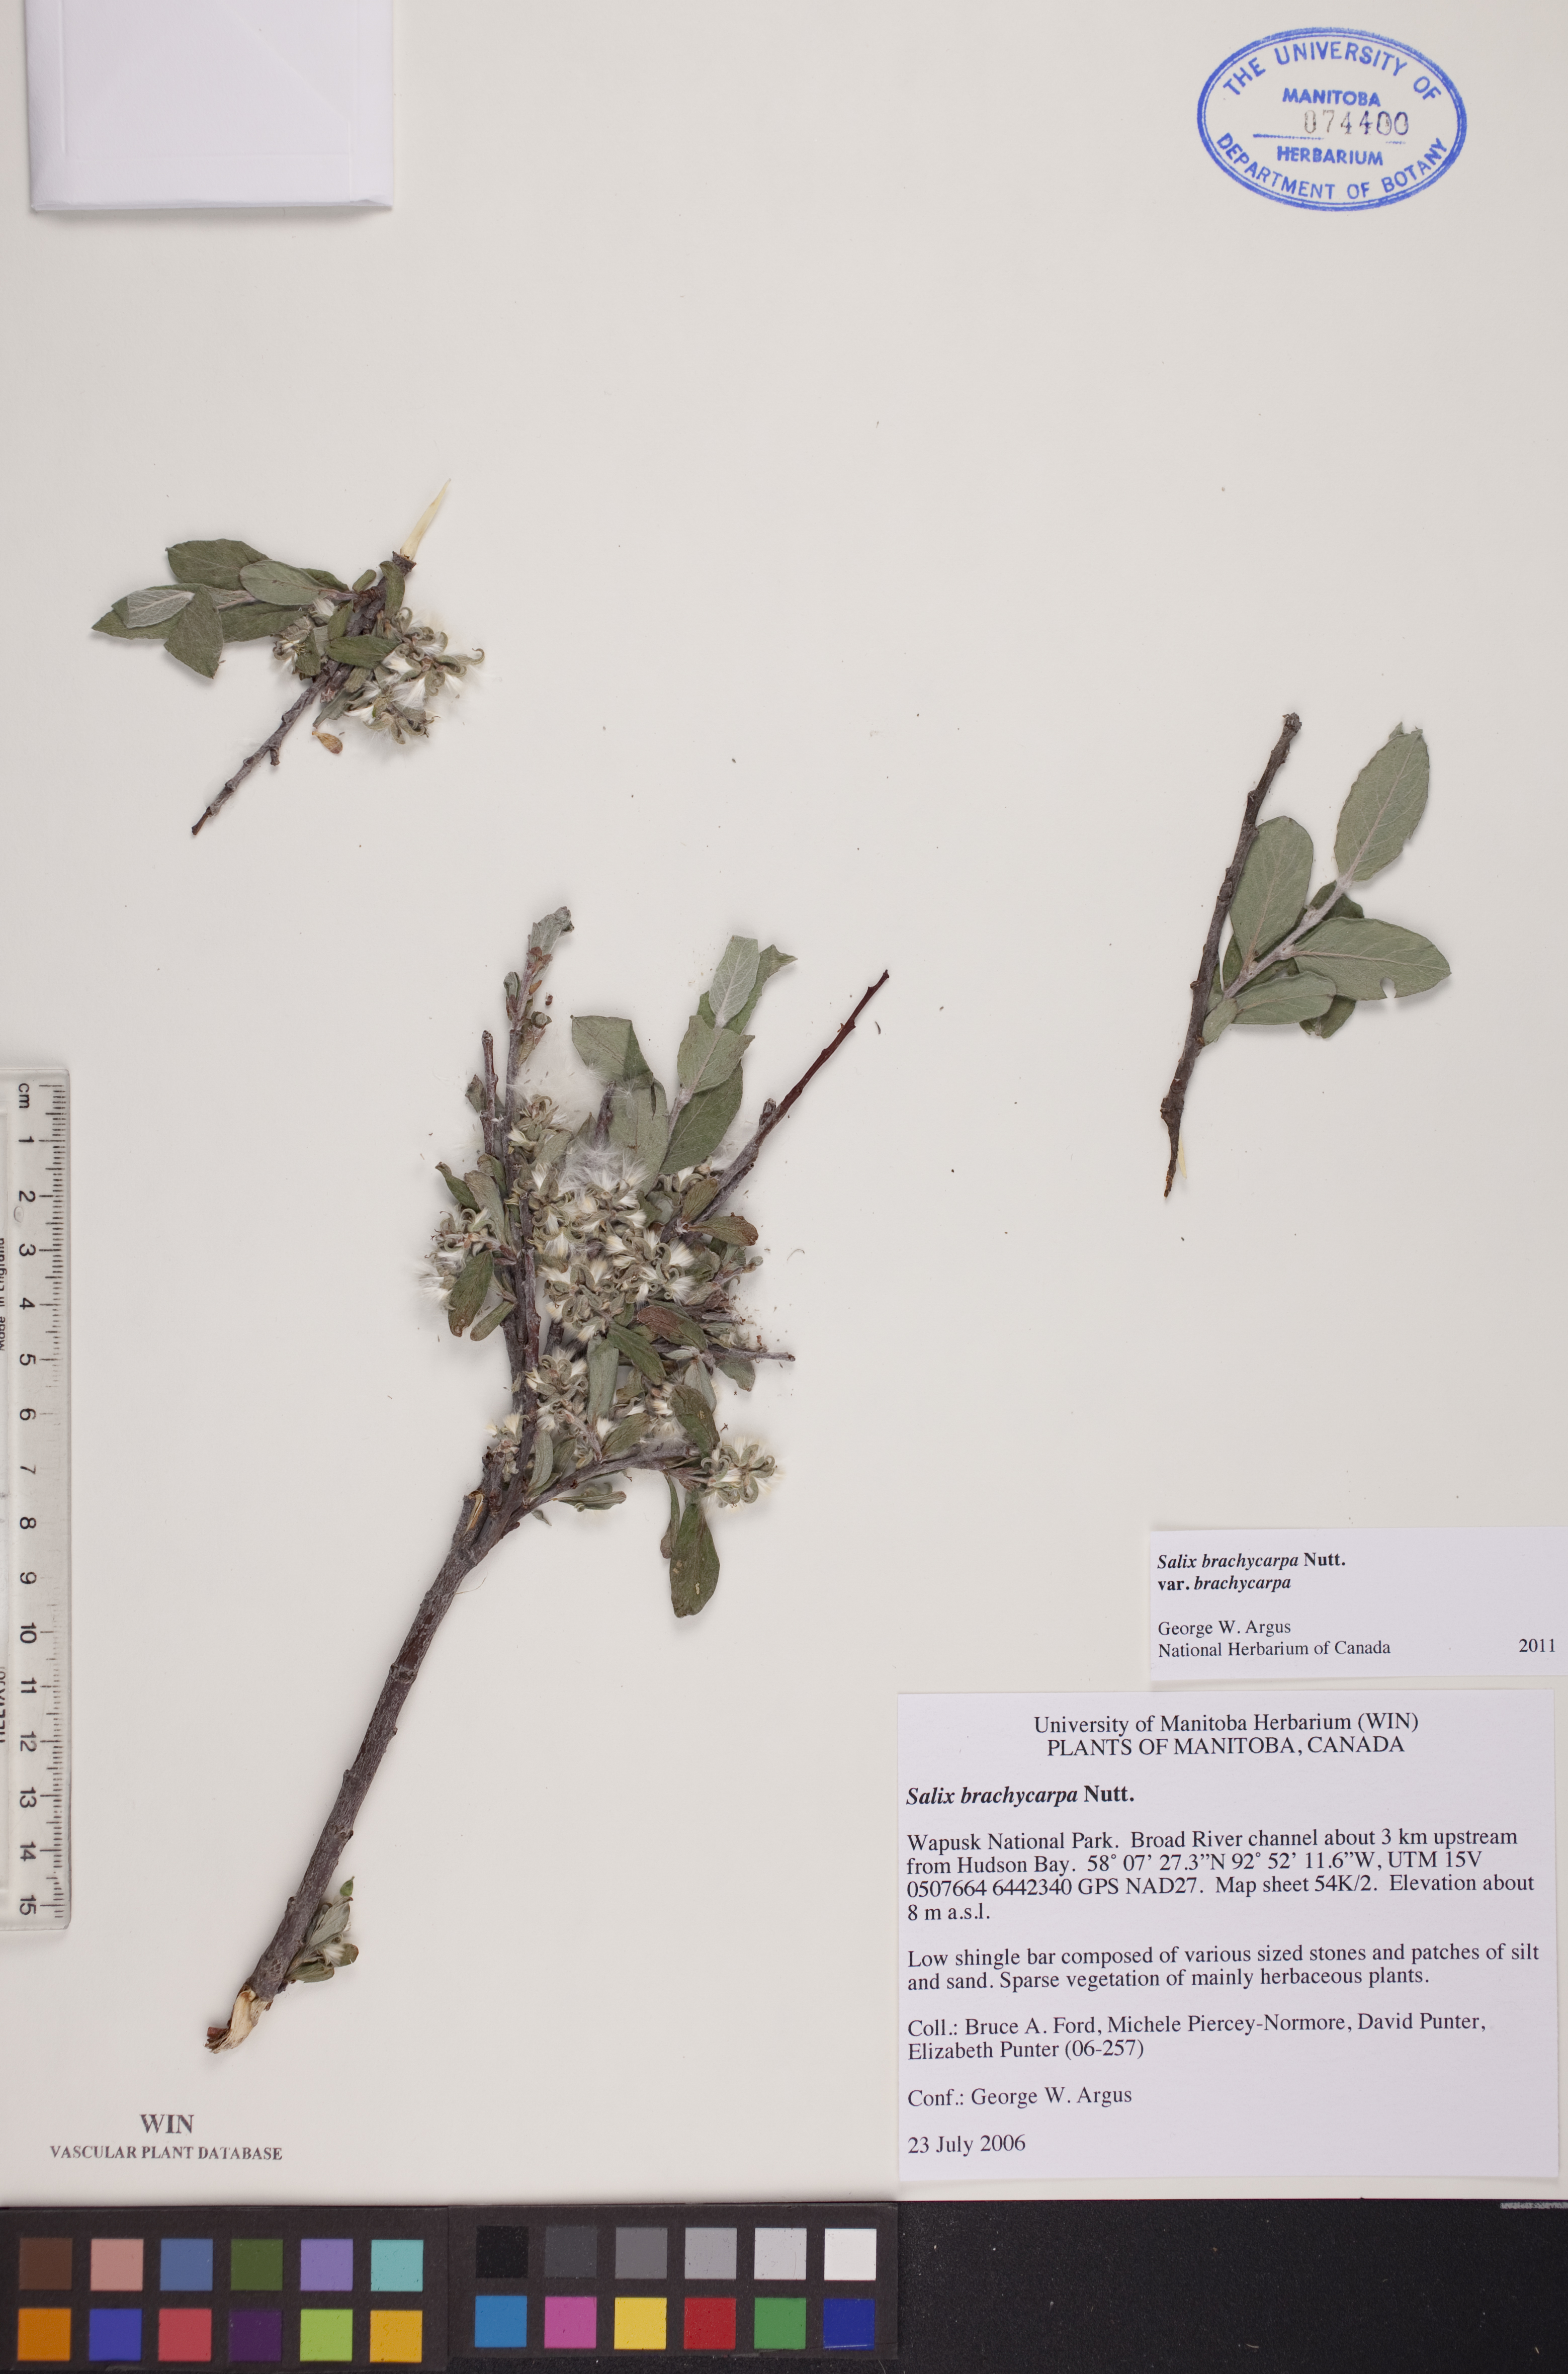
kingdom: Plantae
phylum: Tracheophyta
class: Magnoliopsida
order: Malpighiales
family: Salicaceae
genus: Salix
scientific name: Salix brachycarpa
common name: Barren-ground willow
